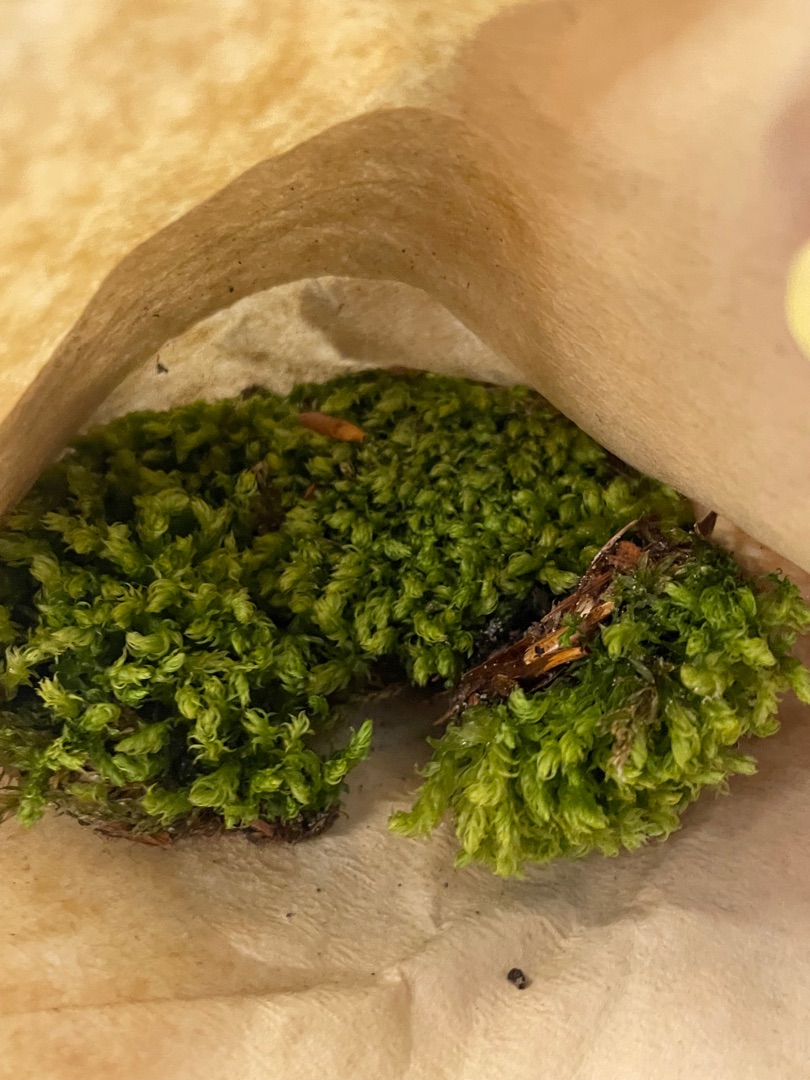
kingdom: Plantae
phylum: Bryophyta
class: Bryopsida
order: Bryales
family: Mniaceae
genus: Mnium
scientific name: Mnium hornum
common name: Brunfiltet stjernemos
